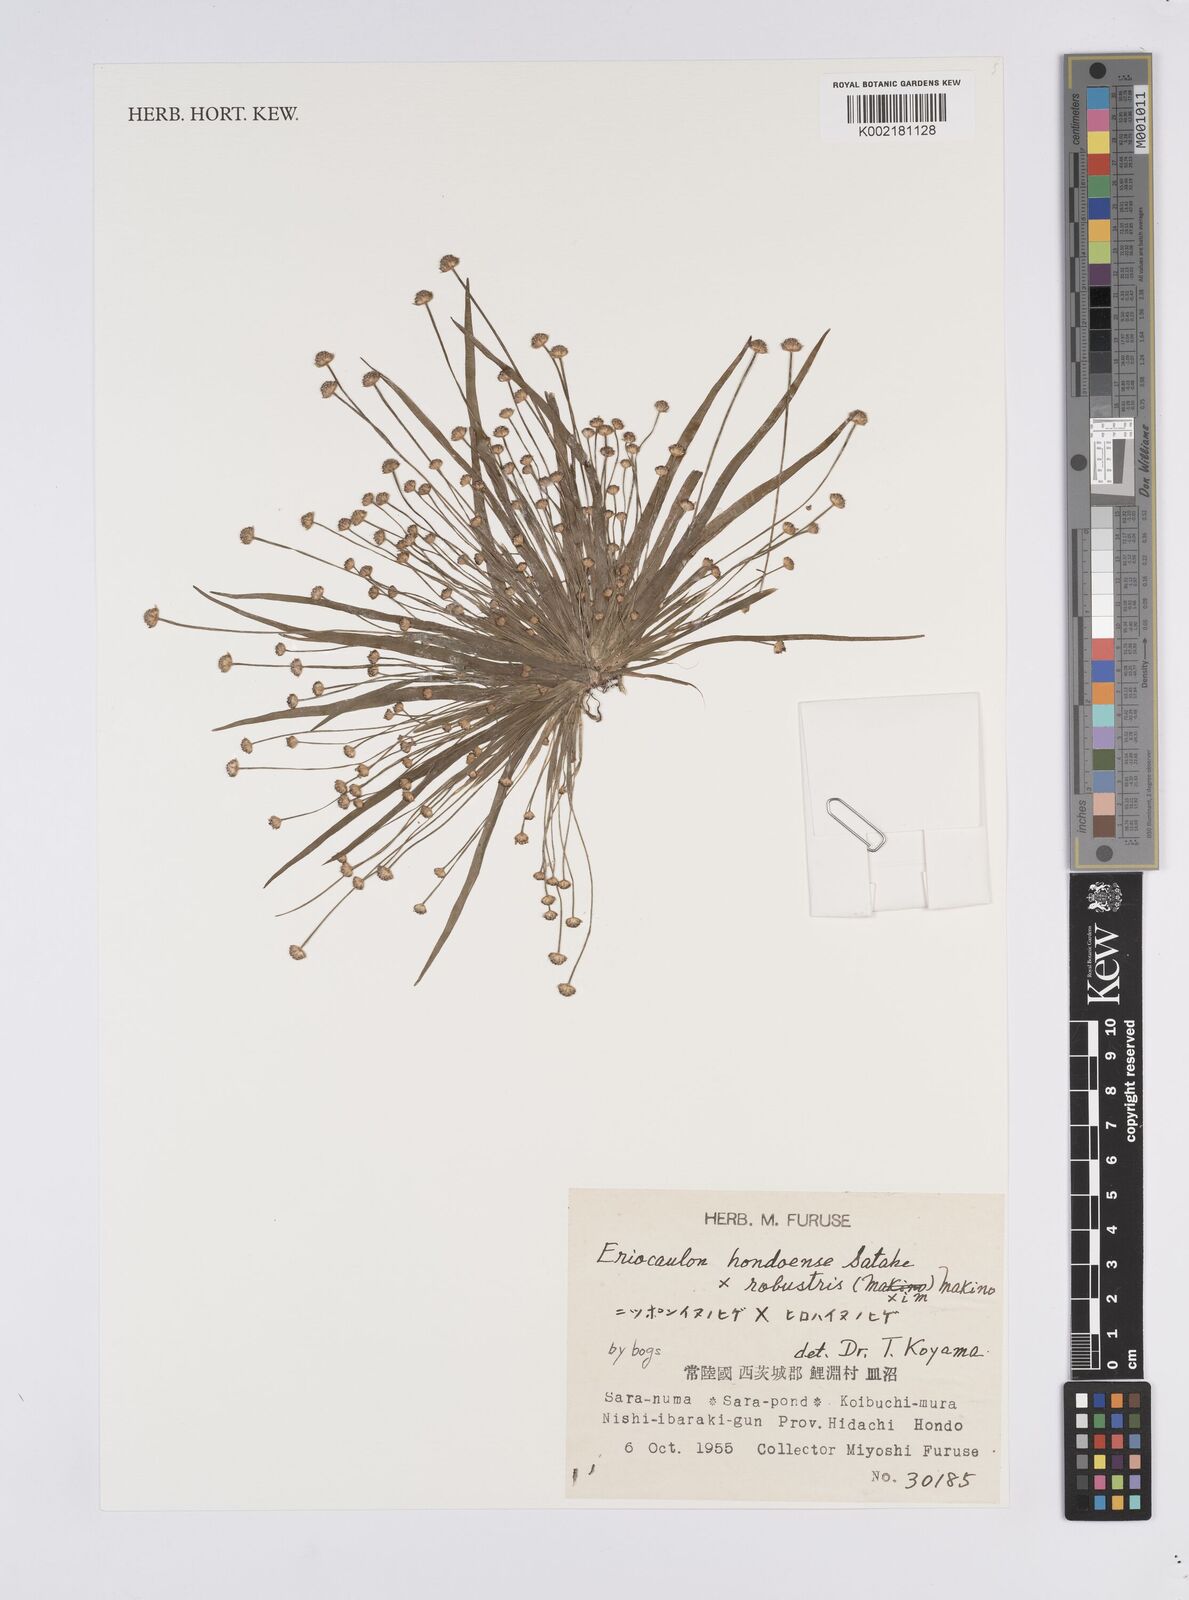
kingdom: Plantae
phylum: Tracheophyta
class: Liliopsida
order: Poales
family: Eriocaulaceae
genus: Eriocaulon
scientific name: Eriocaulon taquetii
